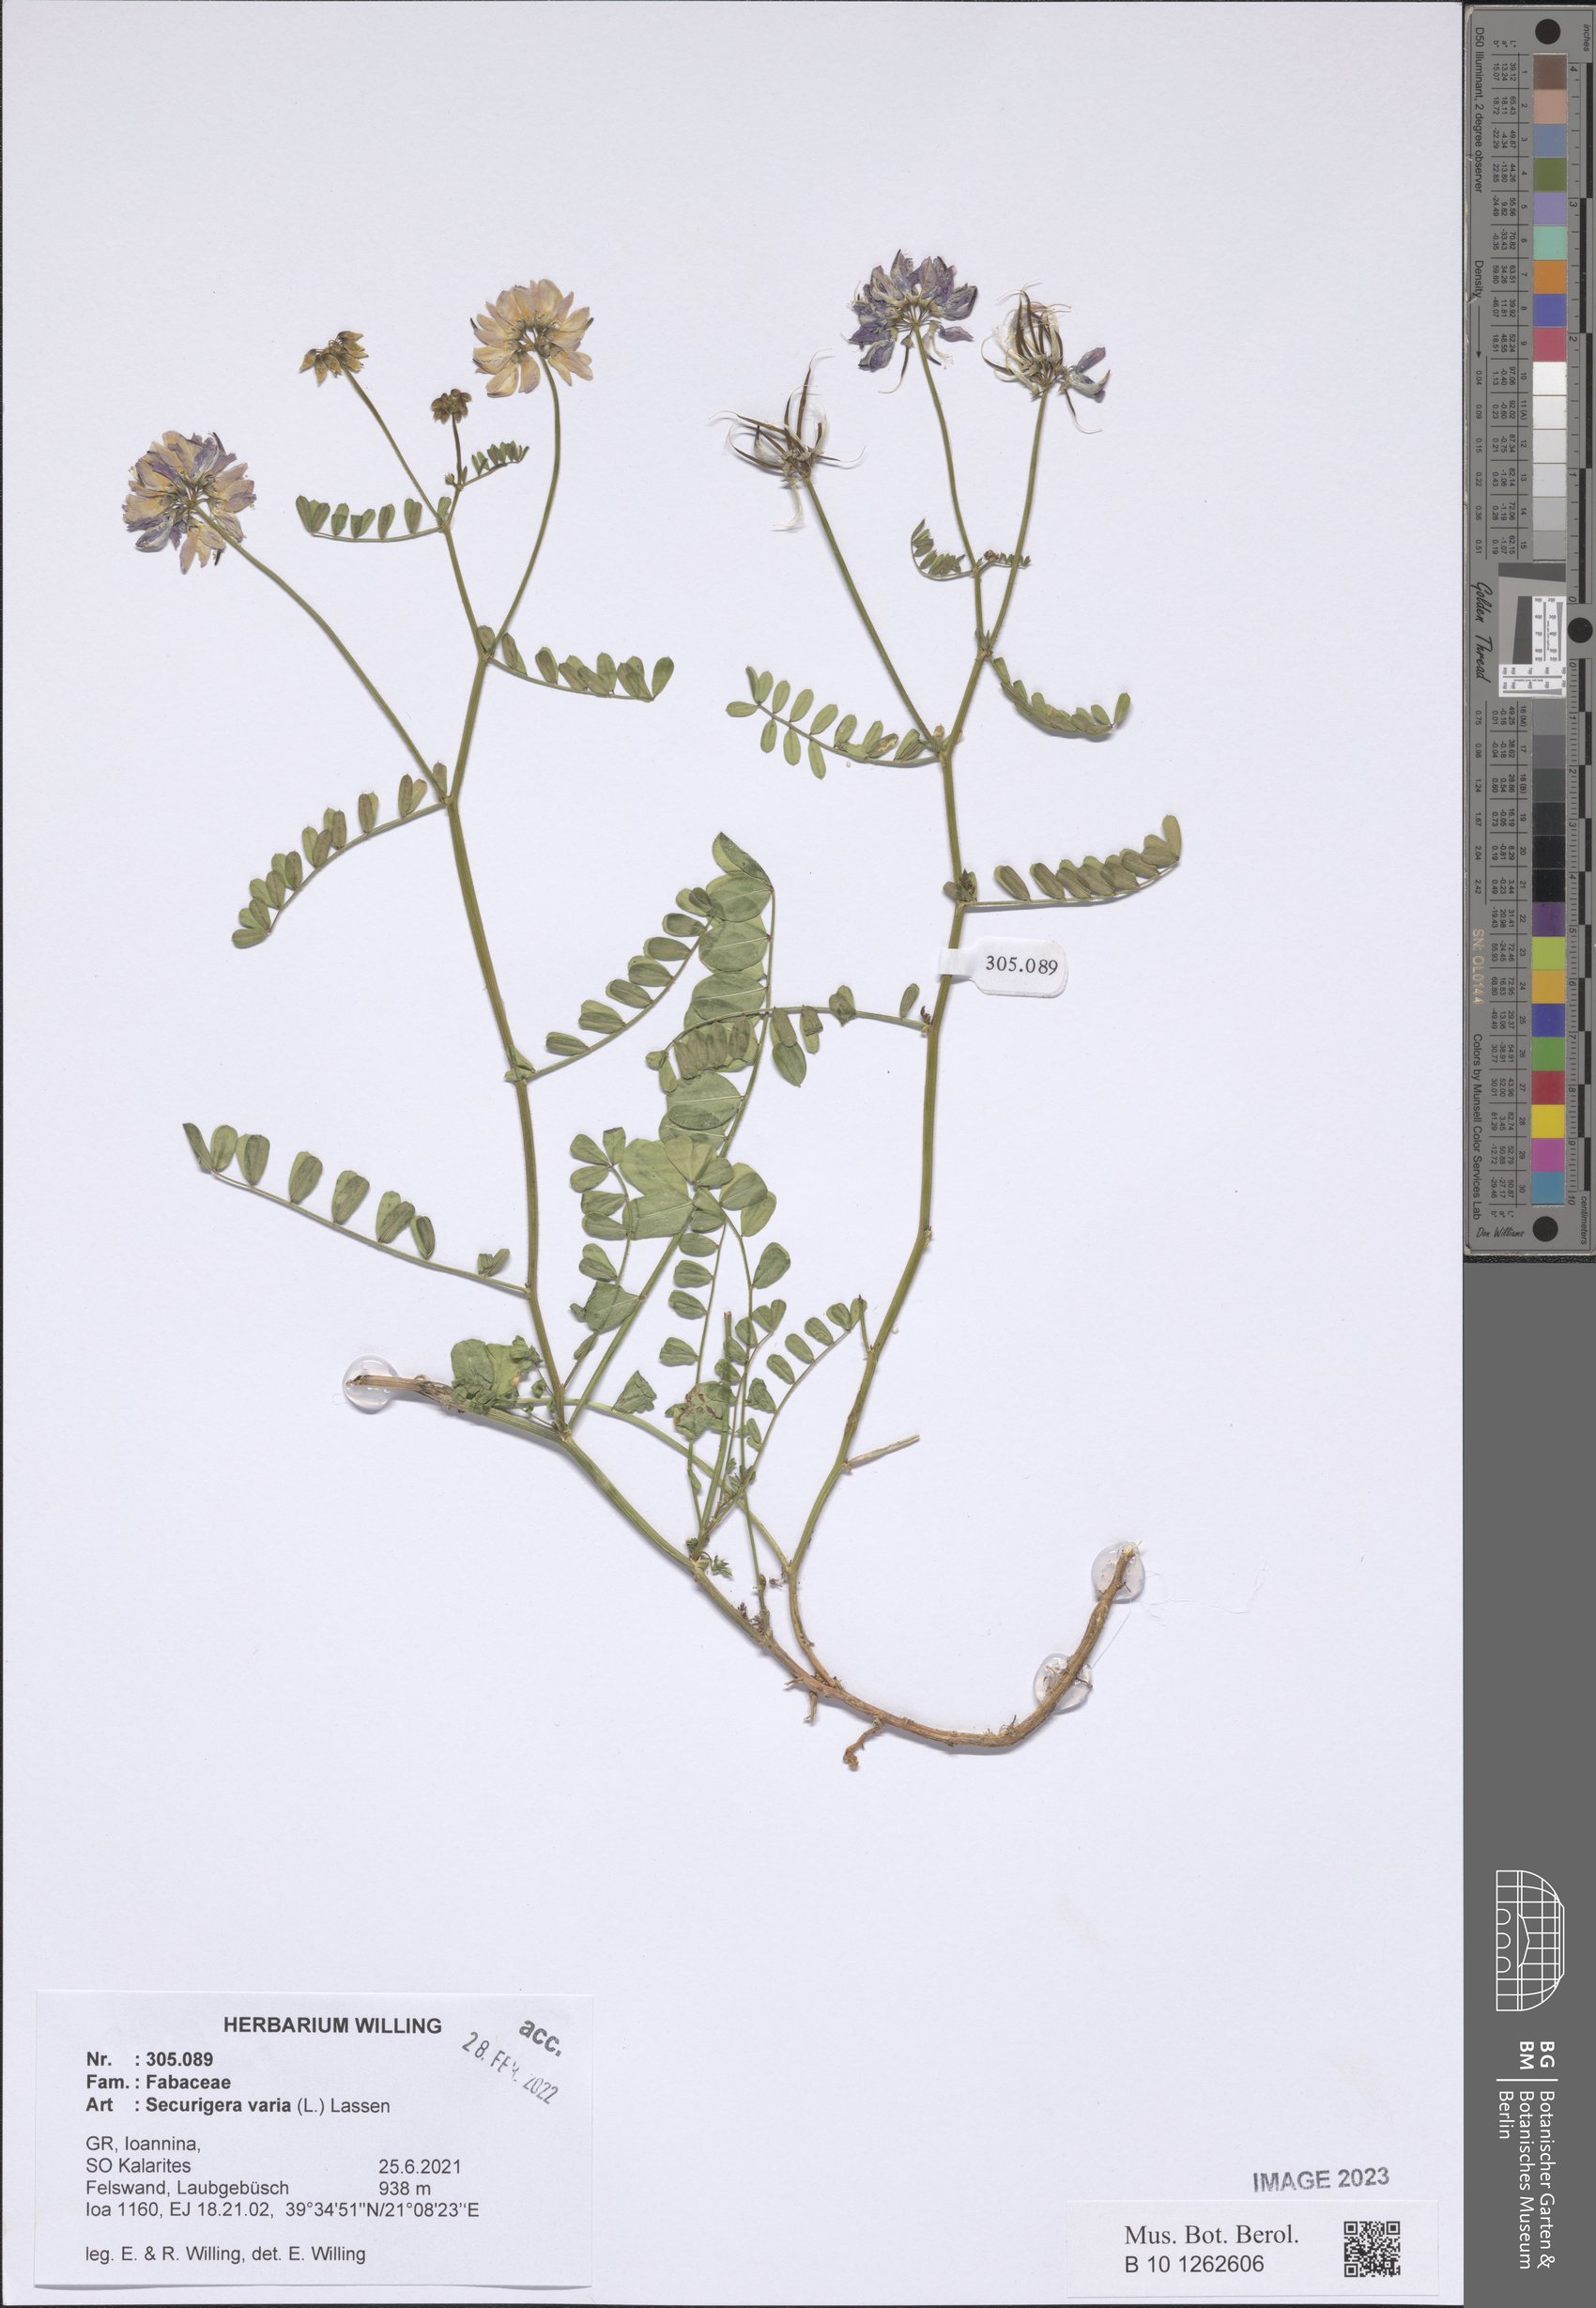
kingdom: Plantae
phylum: Tracheophyta
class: Magnoliopsida
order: Fabales
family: Fabaceae
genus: Coronilla
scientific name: Coronilla varia
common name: Crownvetch
